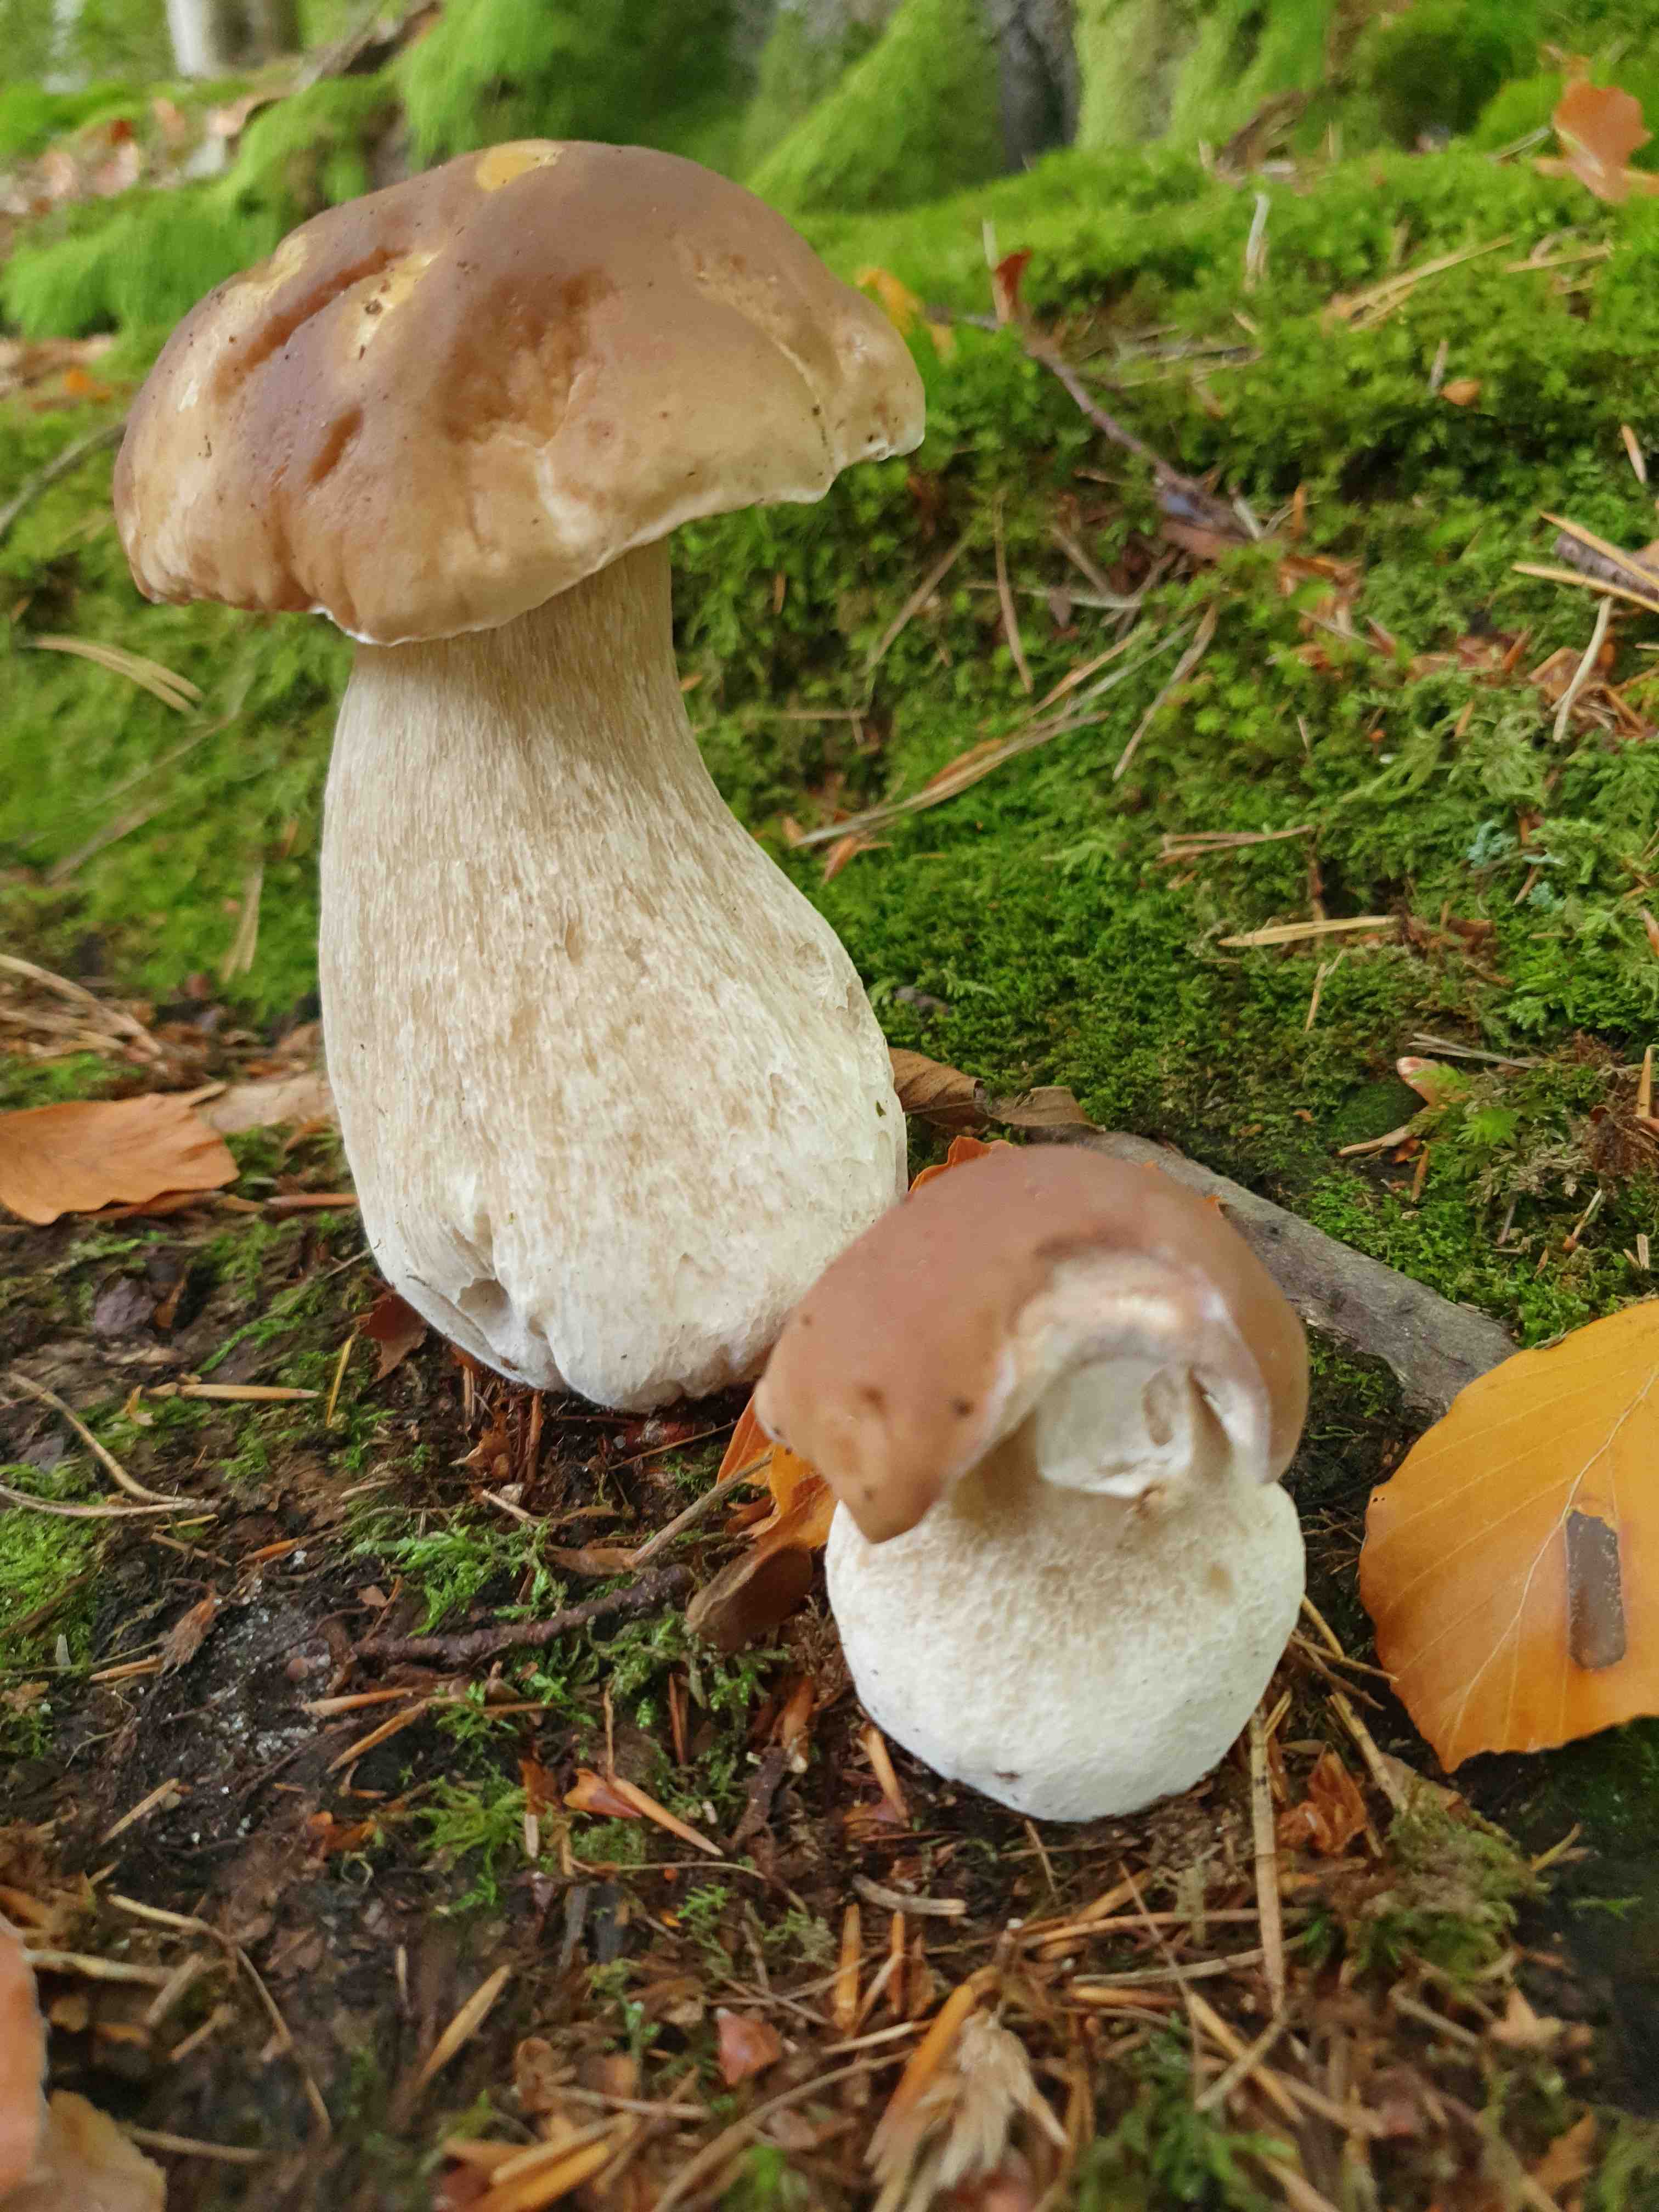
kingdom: Fungi
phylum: Basidiomycota
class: Agaricomycetes
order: Boletales
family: Boletaceae
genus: Boletus
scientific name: Boletus edulis
